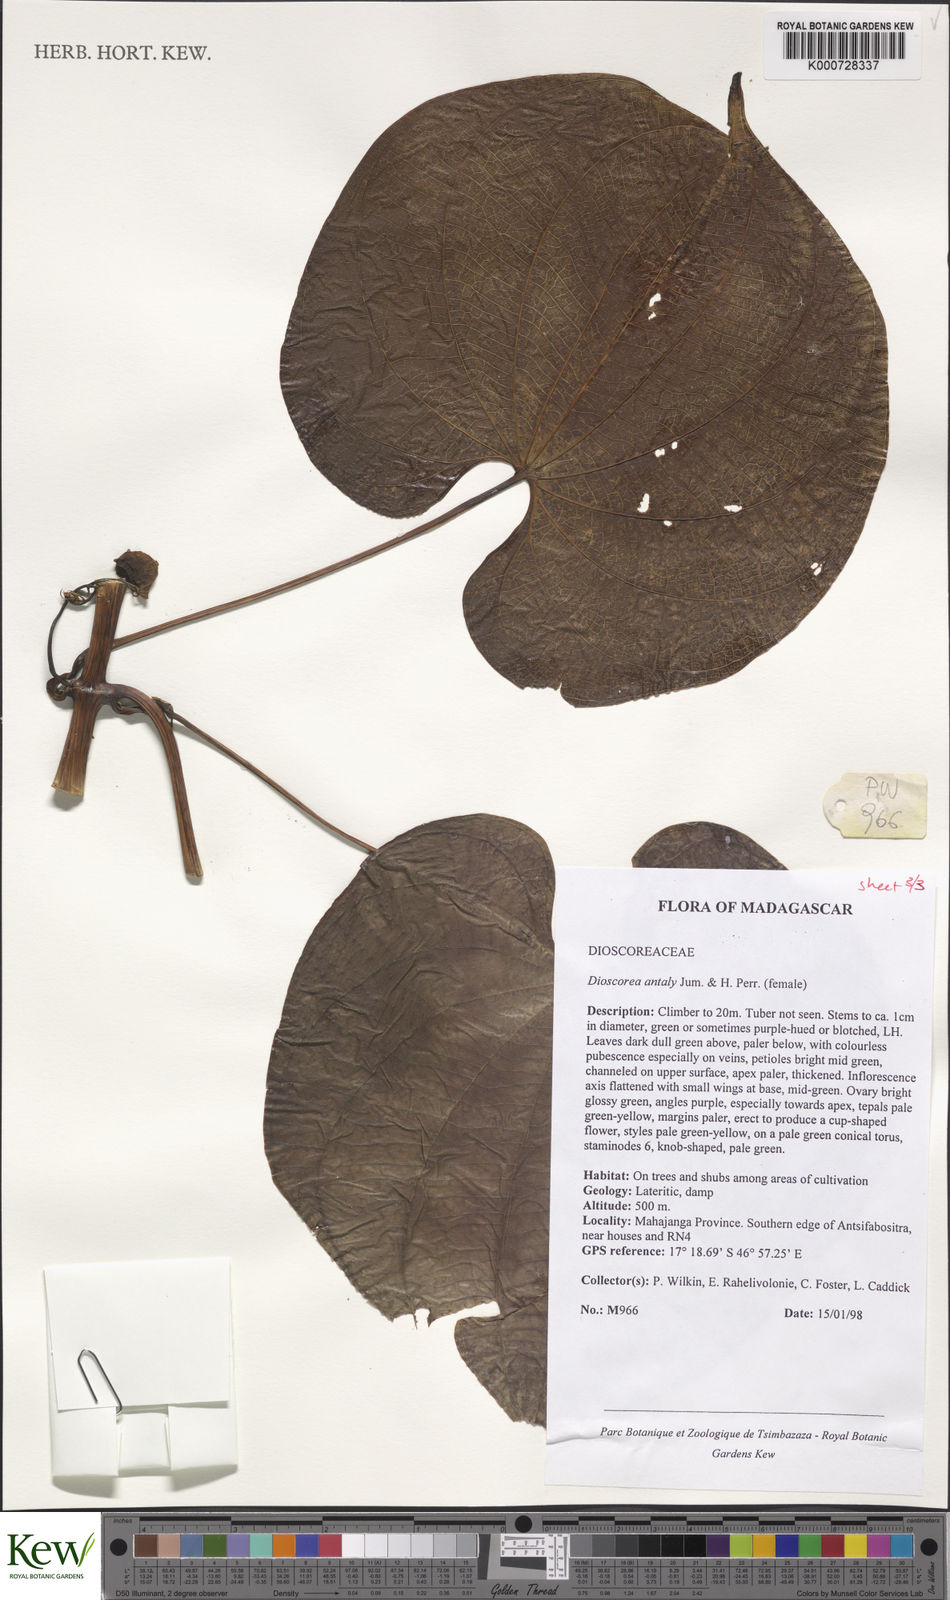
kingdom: Plantae
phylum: Tracheophyta
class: Liliopsida
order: Dioscoreales
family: Dioscoreaceae
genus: Dioscorea
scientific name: Dioscorea antaly
